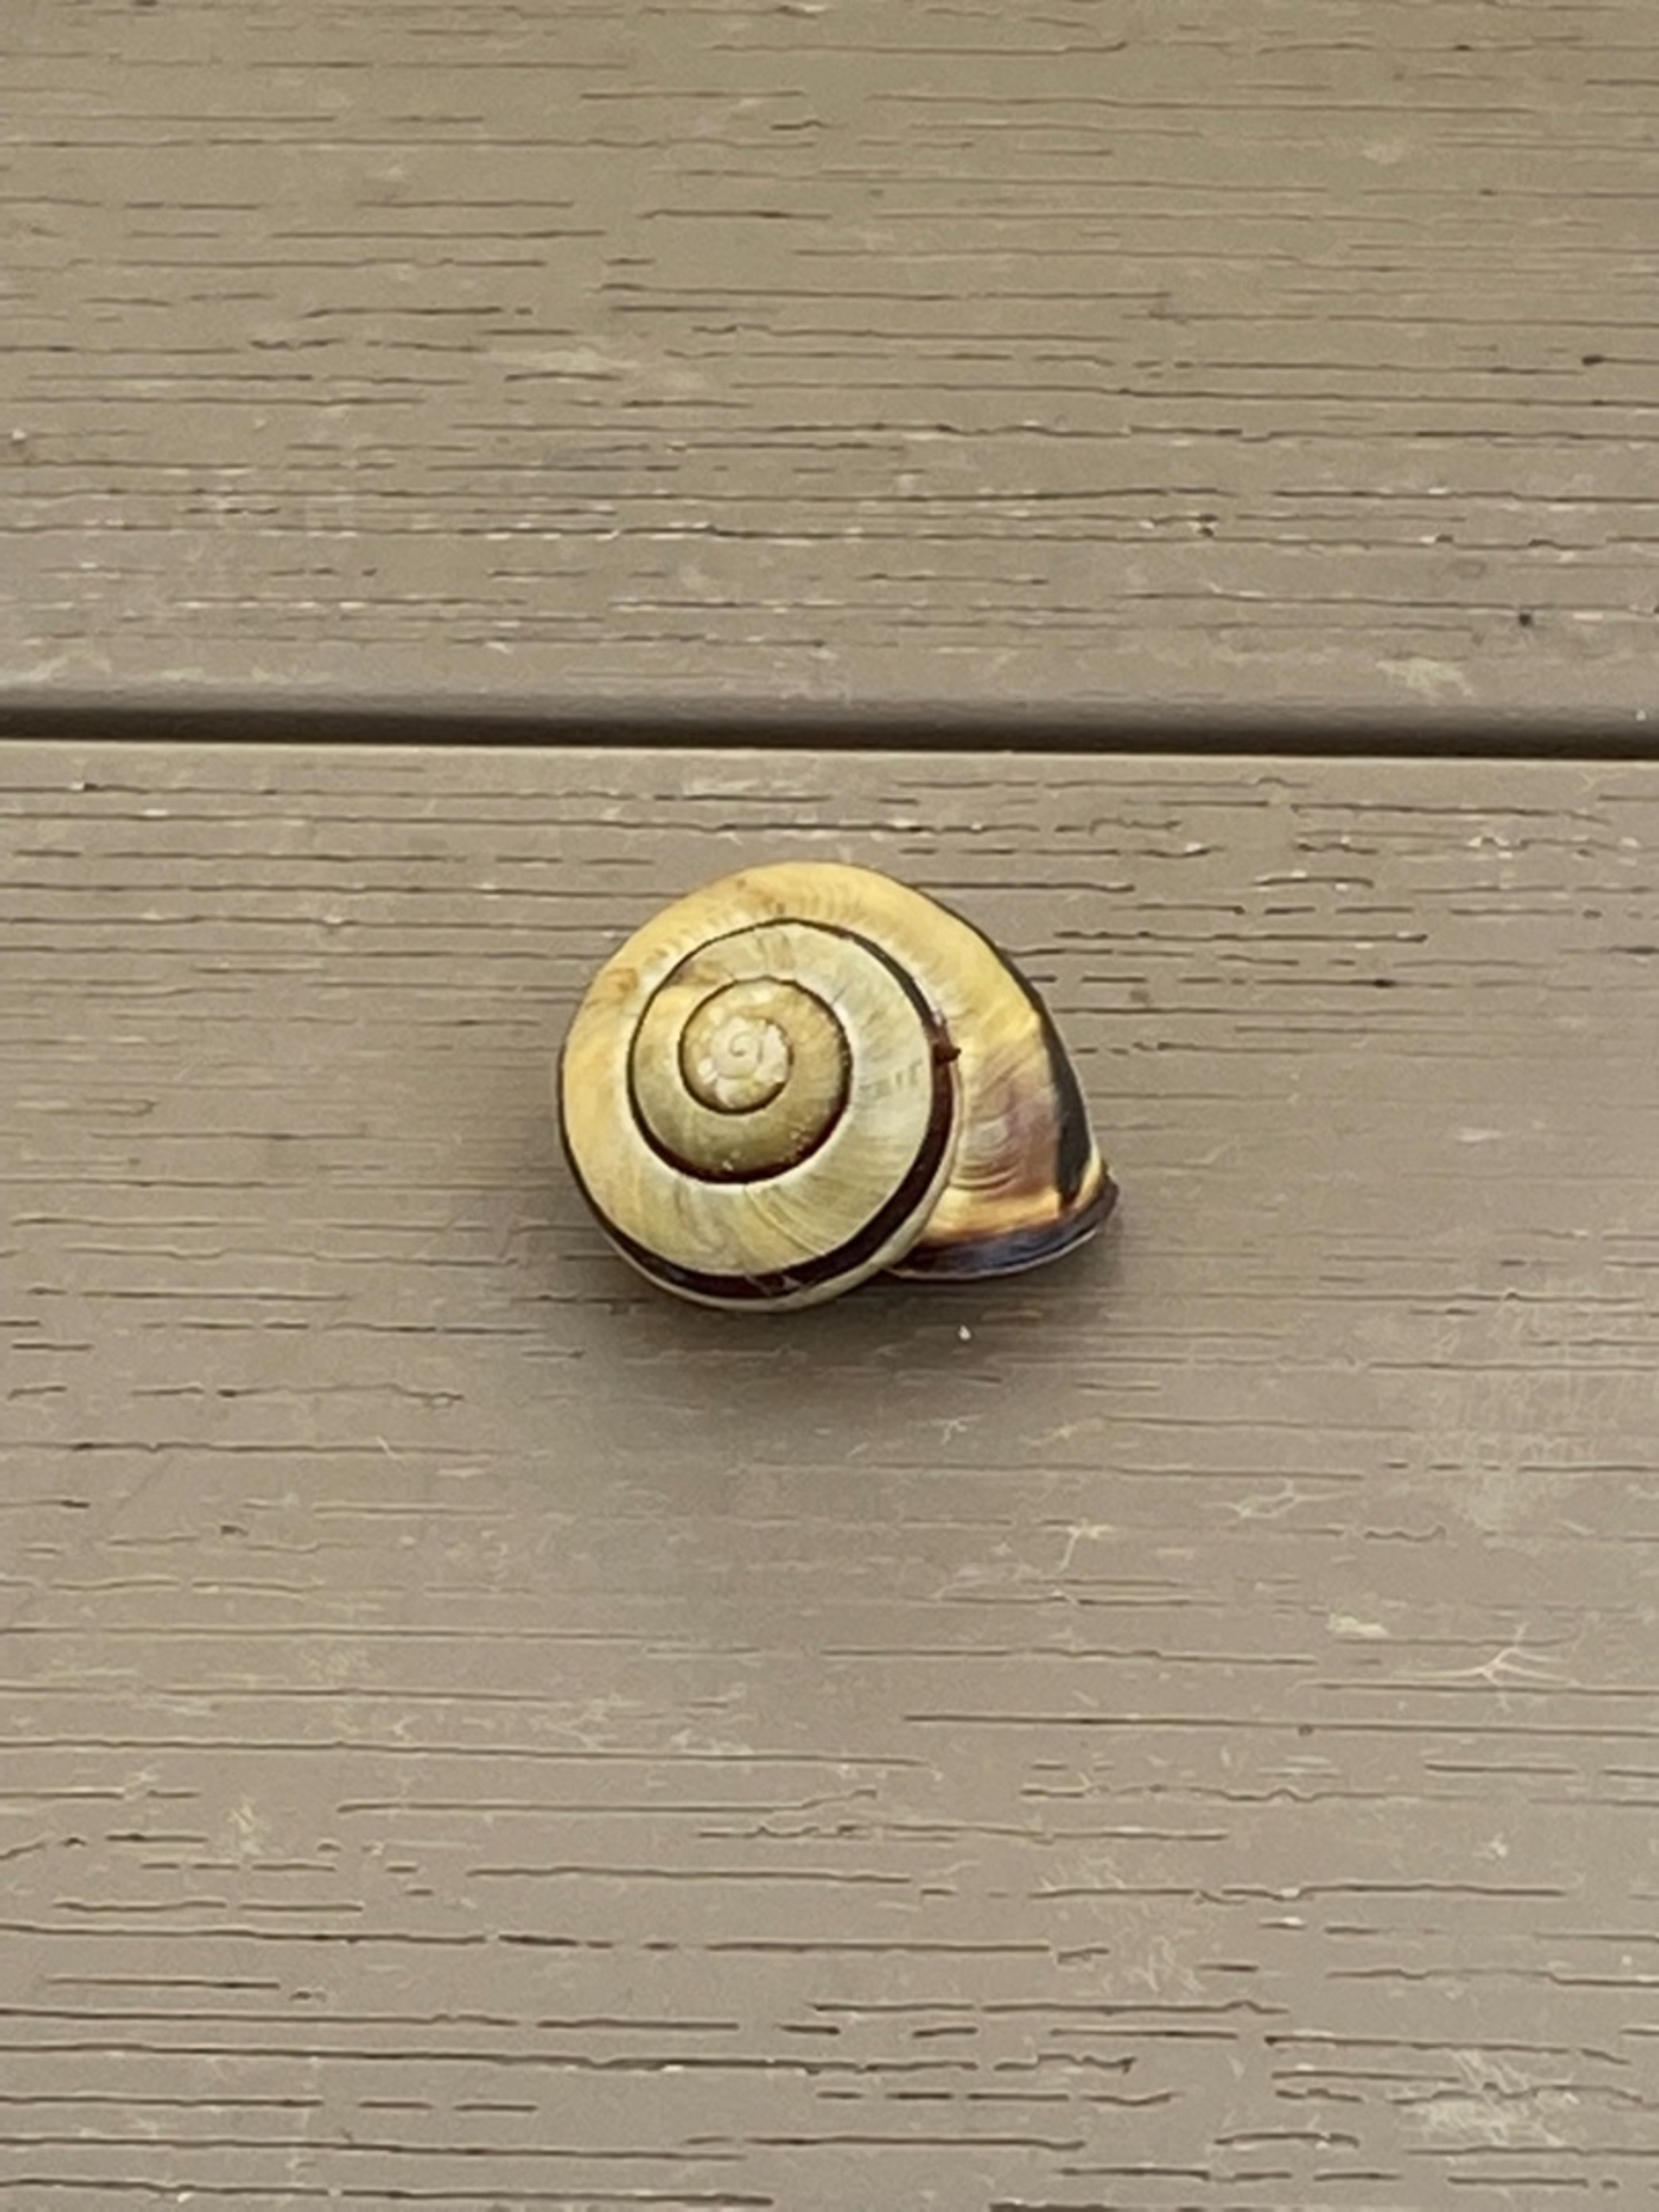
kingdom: Animalia
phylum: Mollusca
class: Gastropoda
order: Stylommatophora
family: Helicidae
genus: Cepaea
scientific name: Cepaea nemoralis
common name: Lundsnegl
